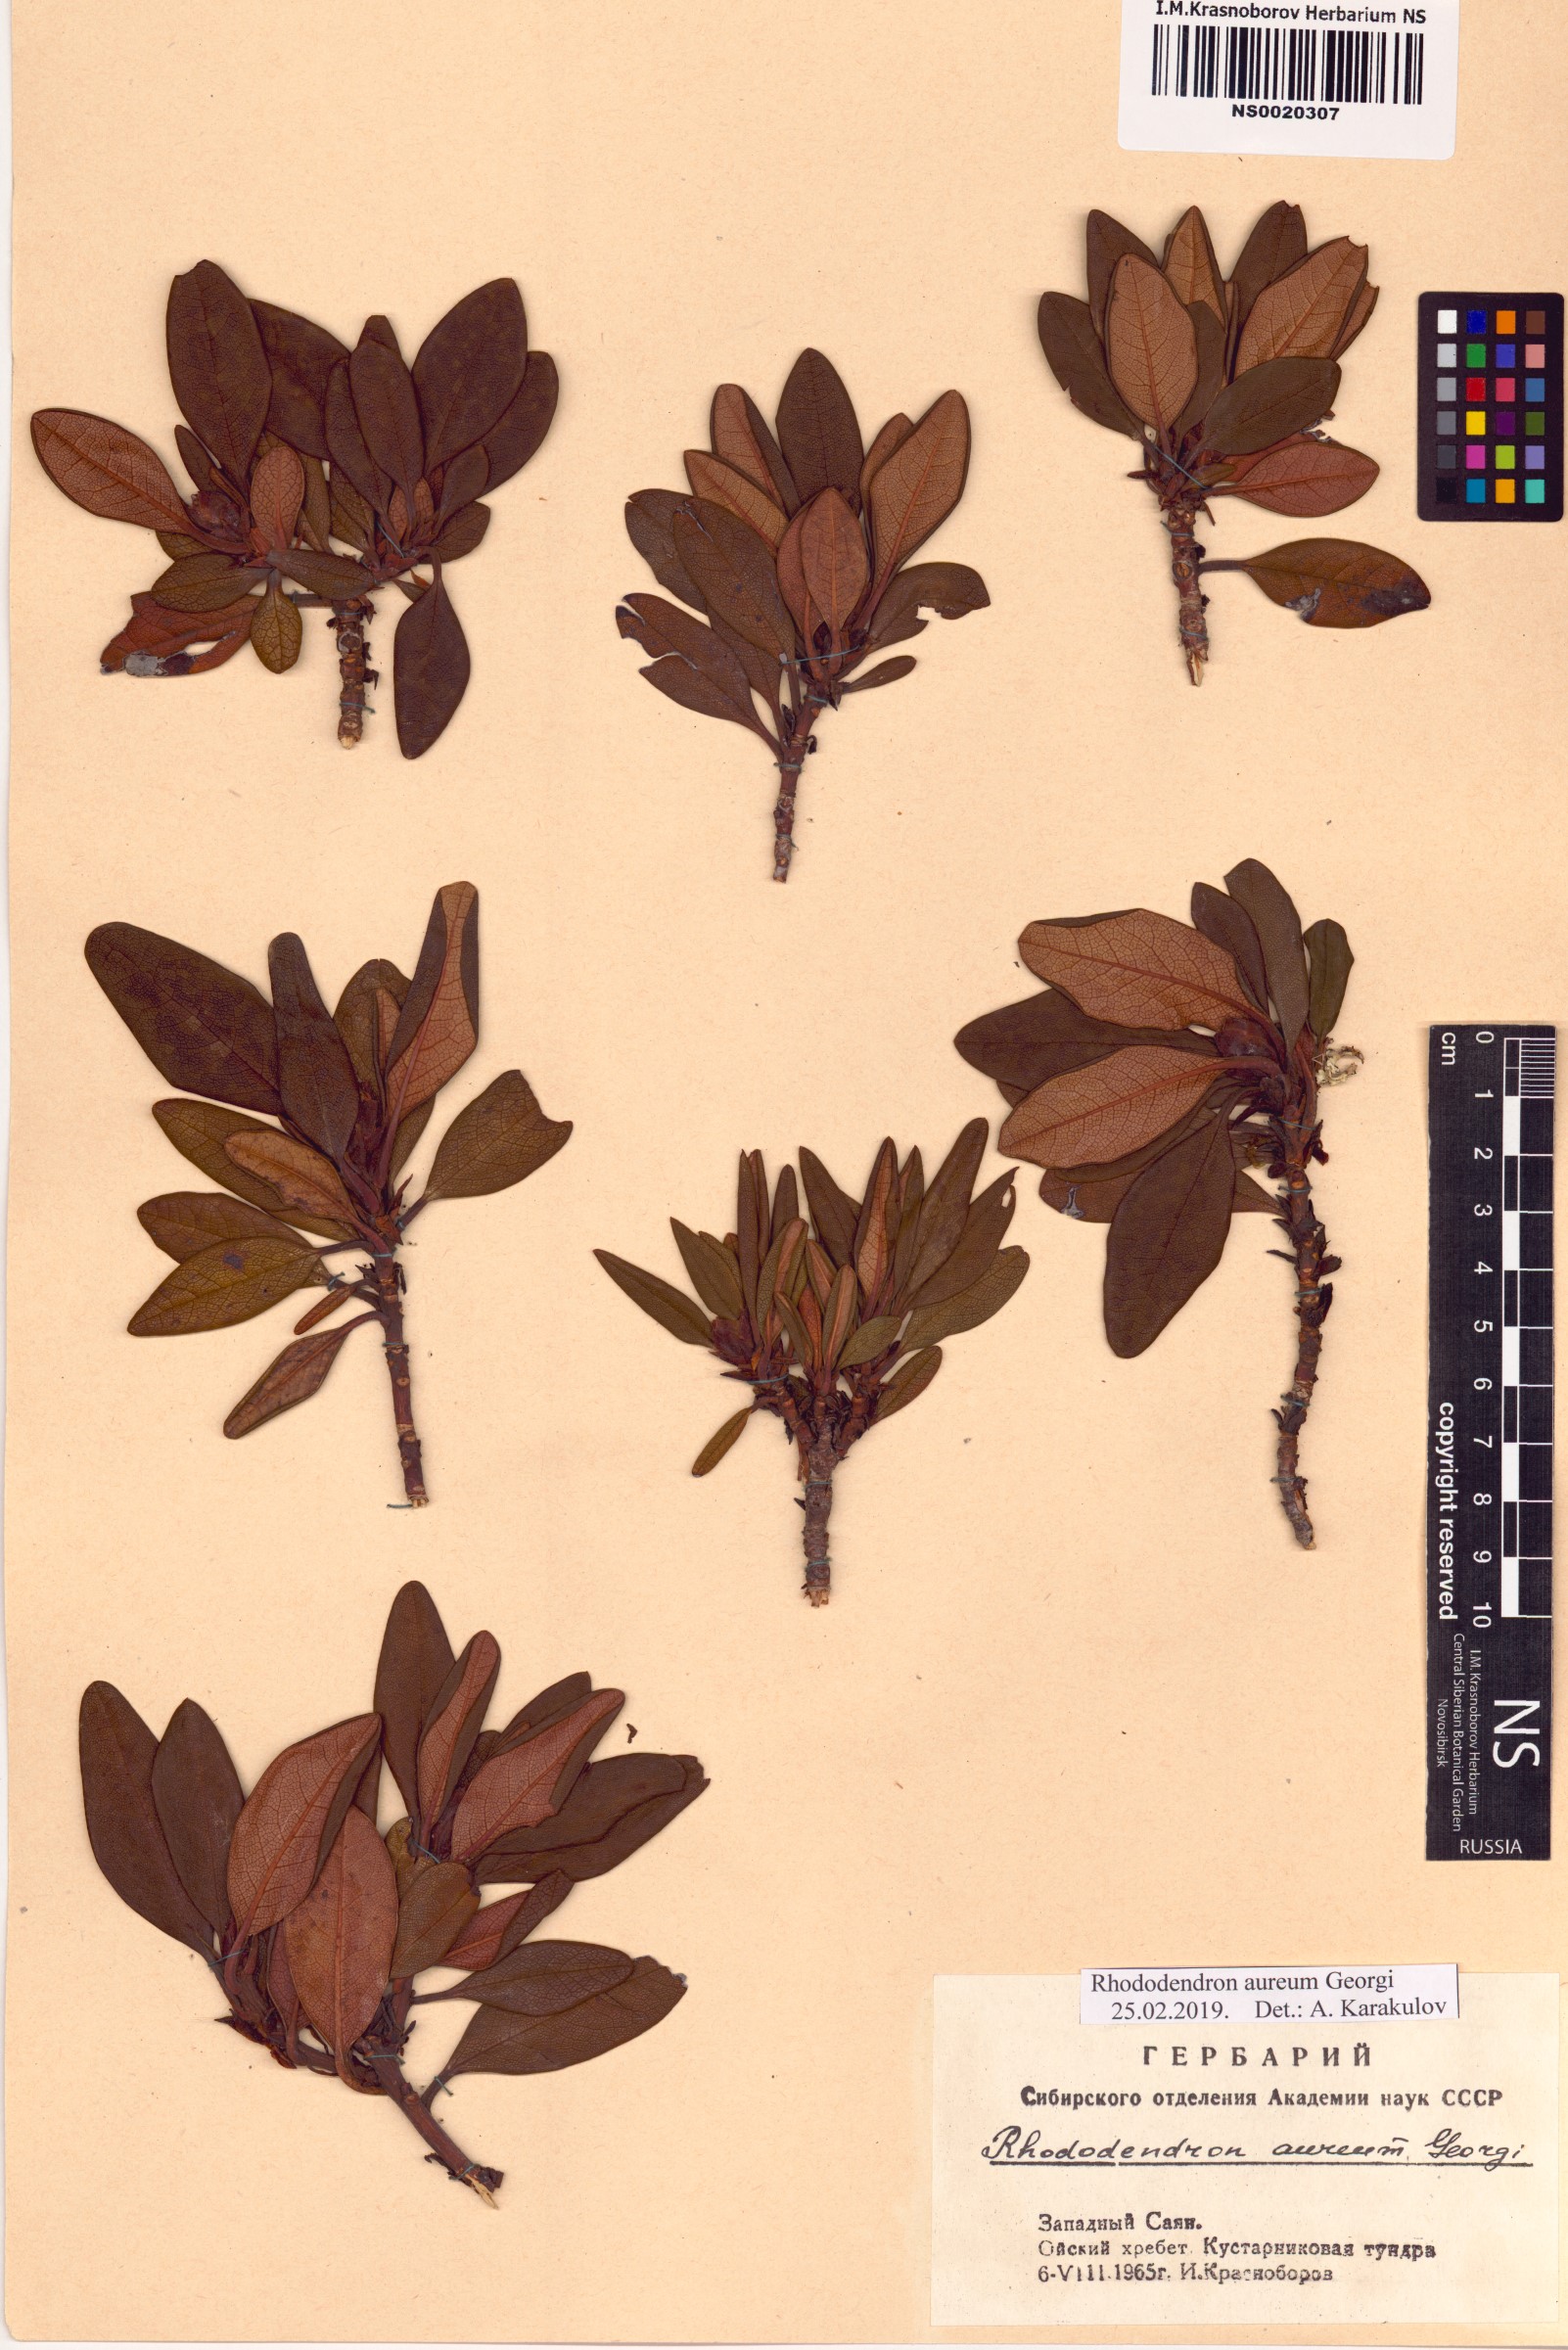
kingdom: Plantae
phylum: Tracheophyta
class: Magnoliopsida
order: Ericales
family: Ericaceae
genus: Rhododendron
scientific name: Rhododendron aureum
